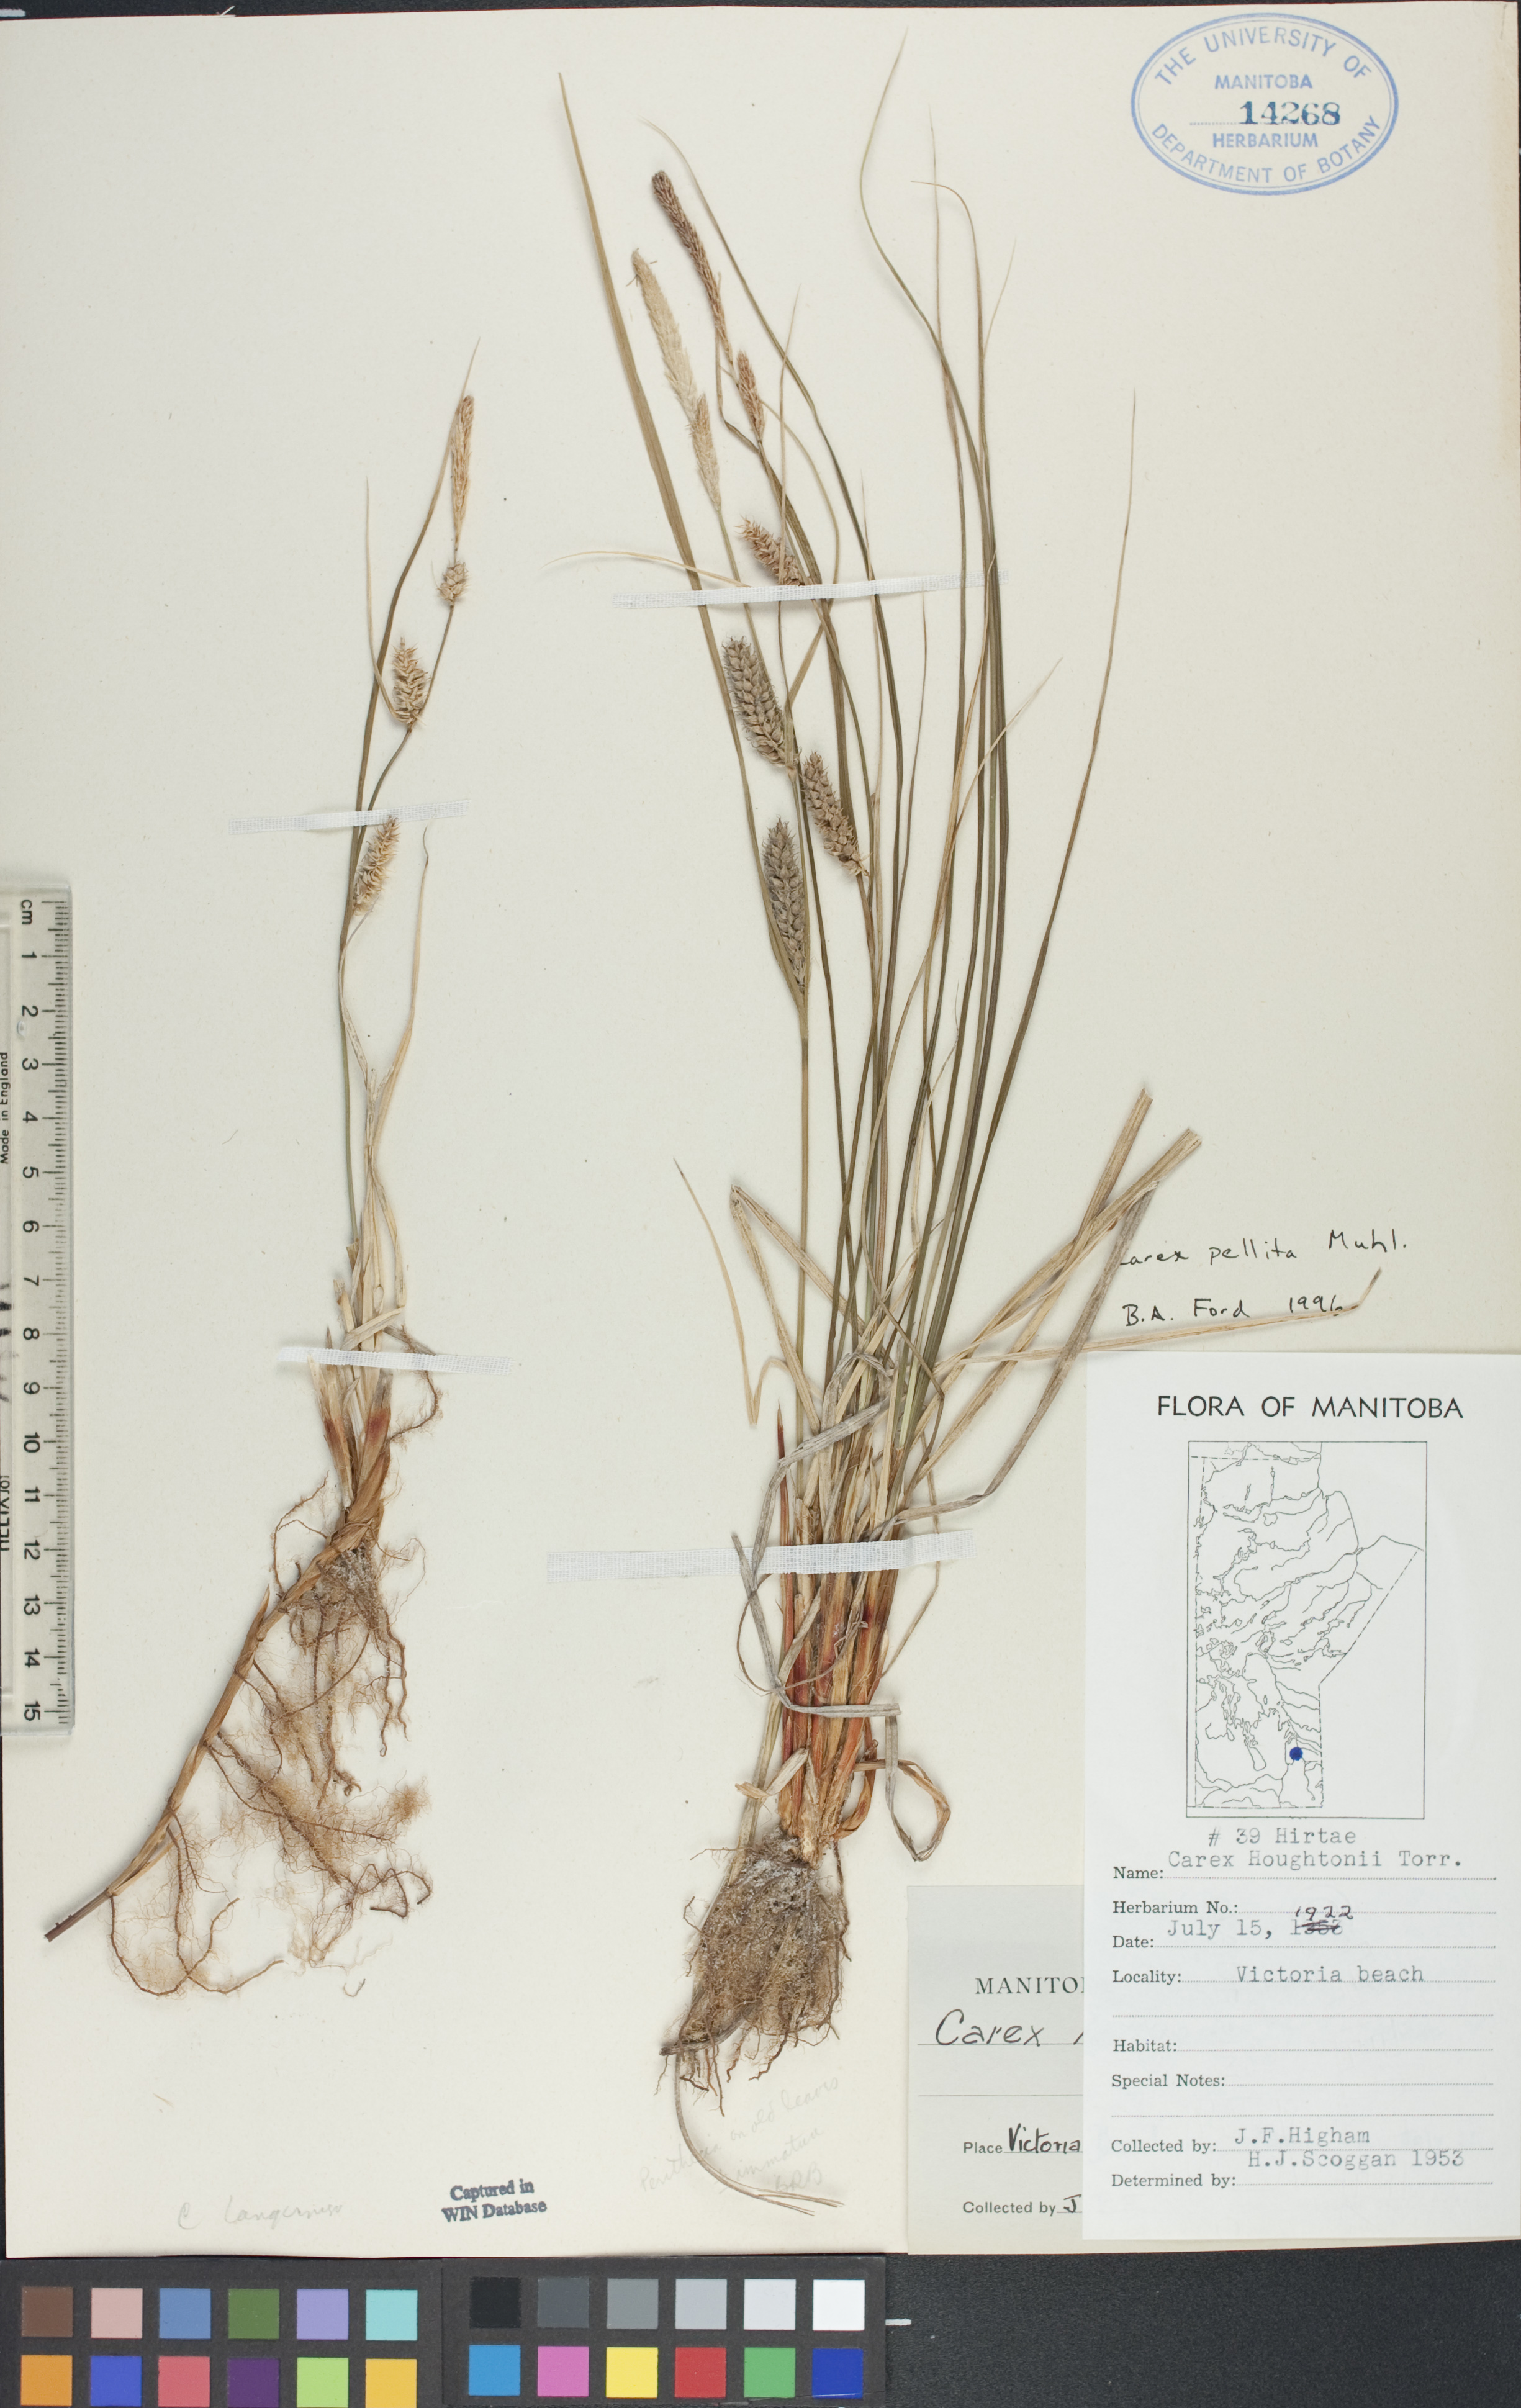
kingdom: Plantae
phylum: Tracheophyta
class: Liliopsida
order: Poales
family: Cyperaceae
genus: Carex
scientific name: Carex pellita
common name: Woolly sedge
